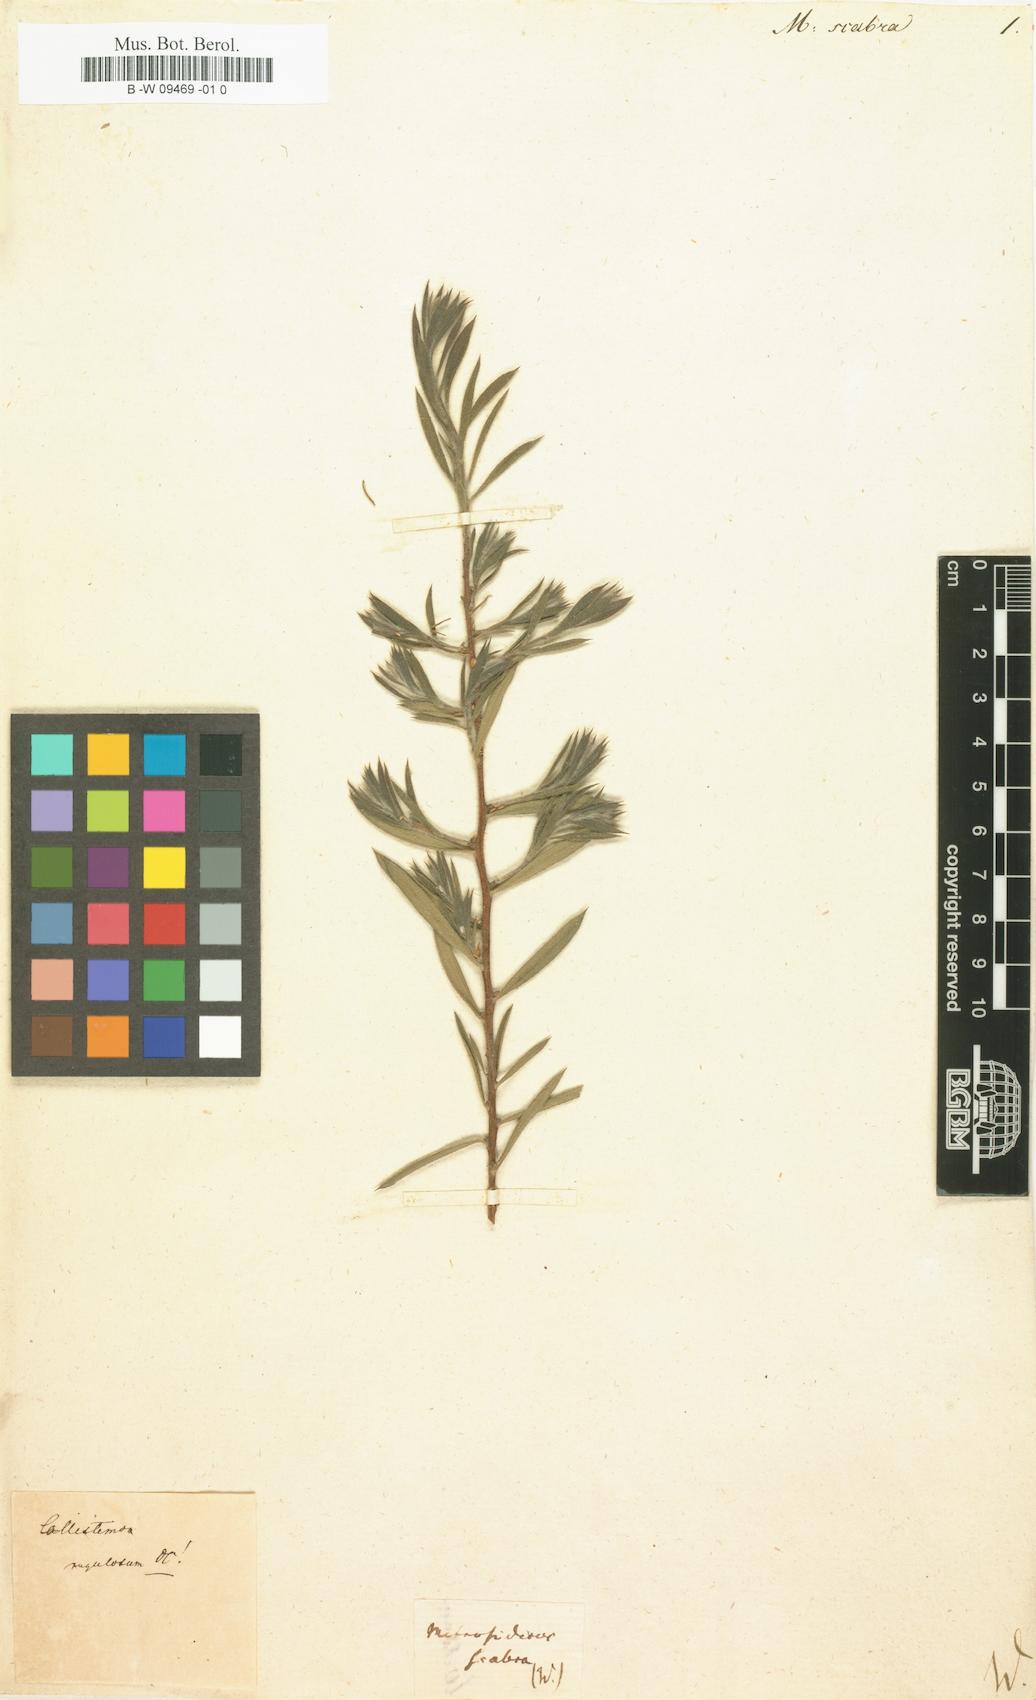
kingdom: Plantae
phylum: Tracheophyta
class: Magnoliopsida
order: Myrtales
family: Myrtaceae
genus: Metrosideros
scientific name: Metrosideros scabra
